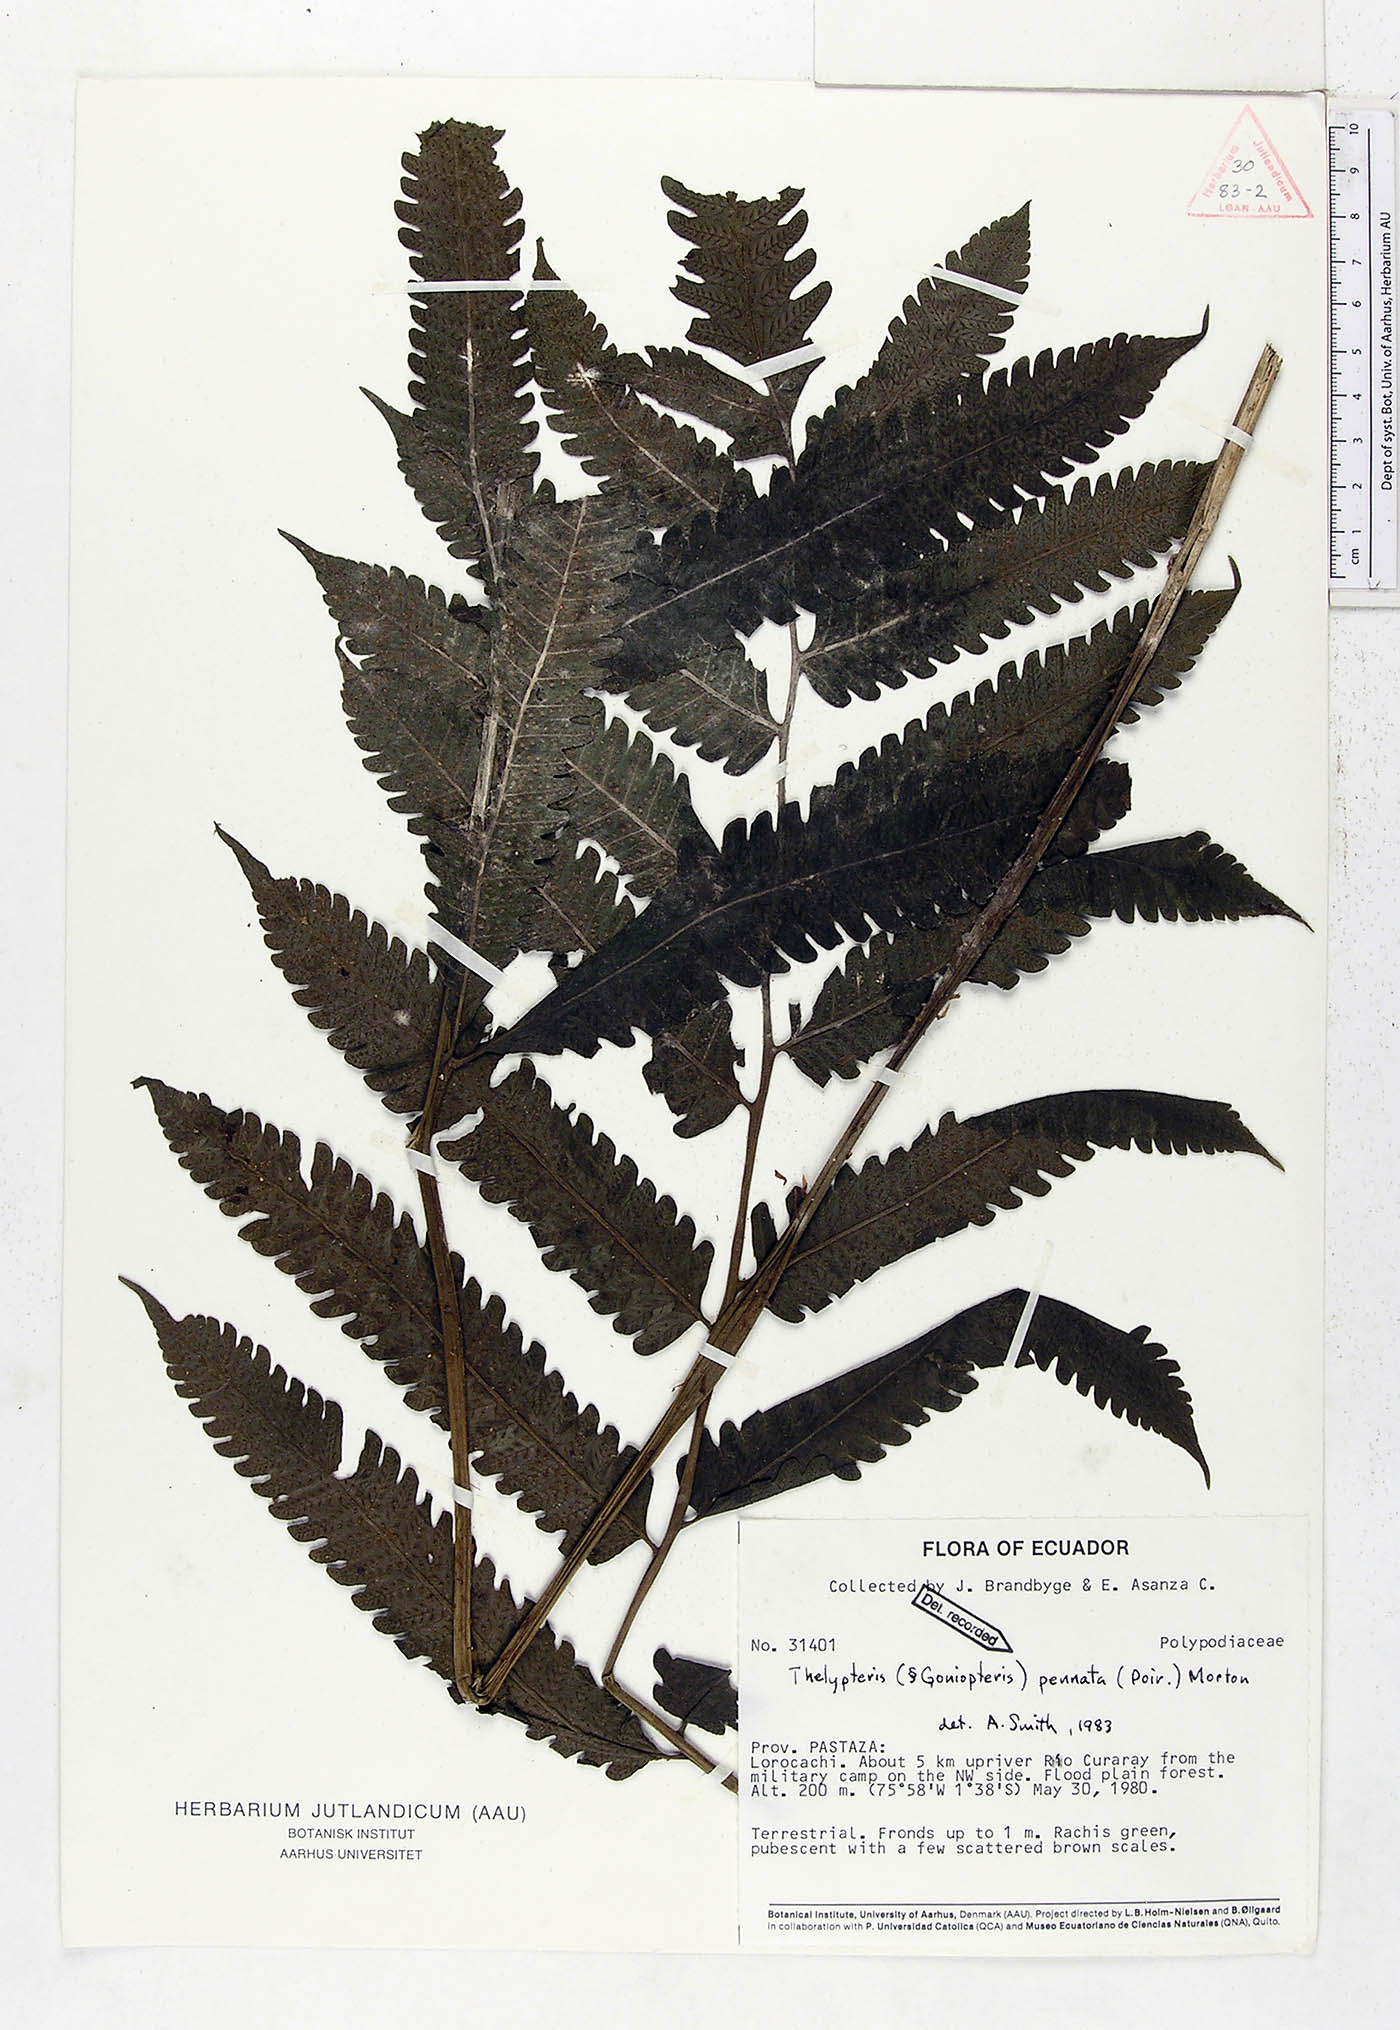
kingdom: Plantae
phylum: Tracheophyta
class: Polypodiopsida
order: Polypodiales
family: Thelypteridaceae
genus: Goniopteris
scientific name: Goniopteris pennata
